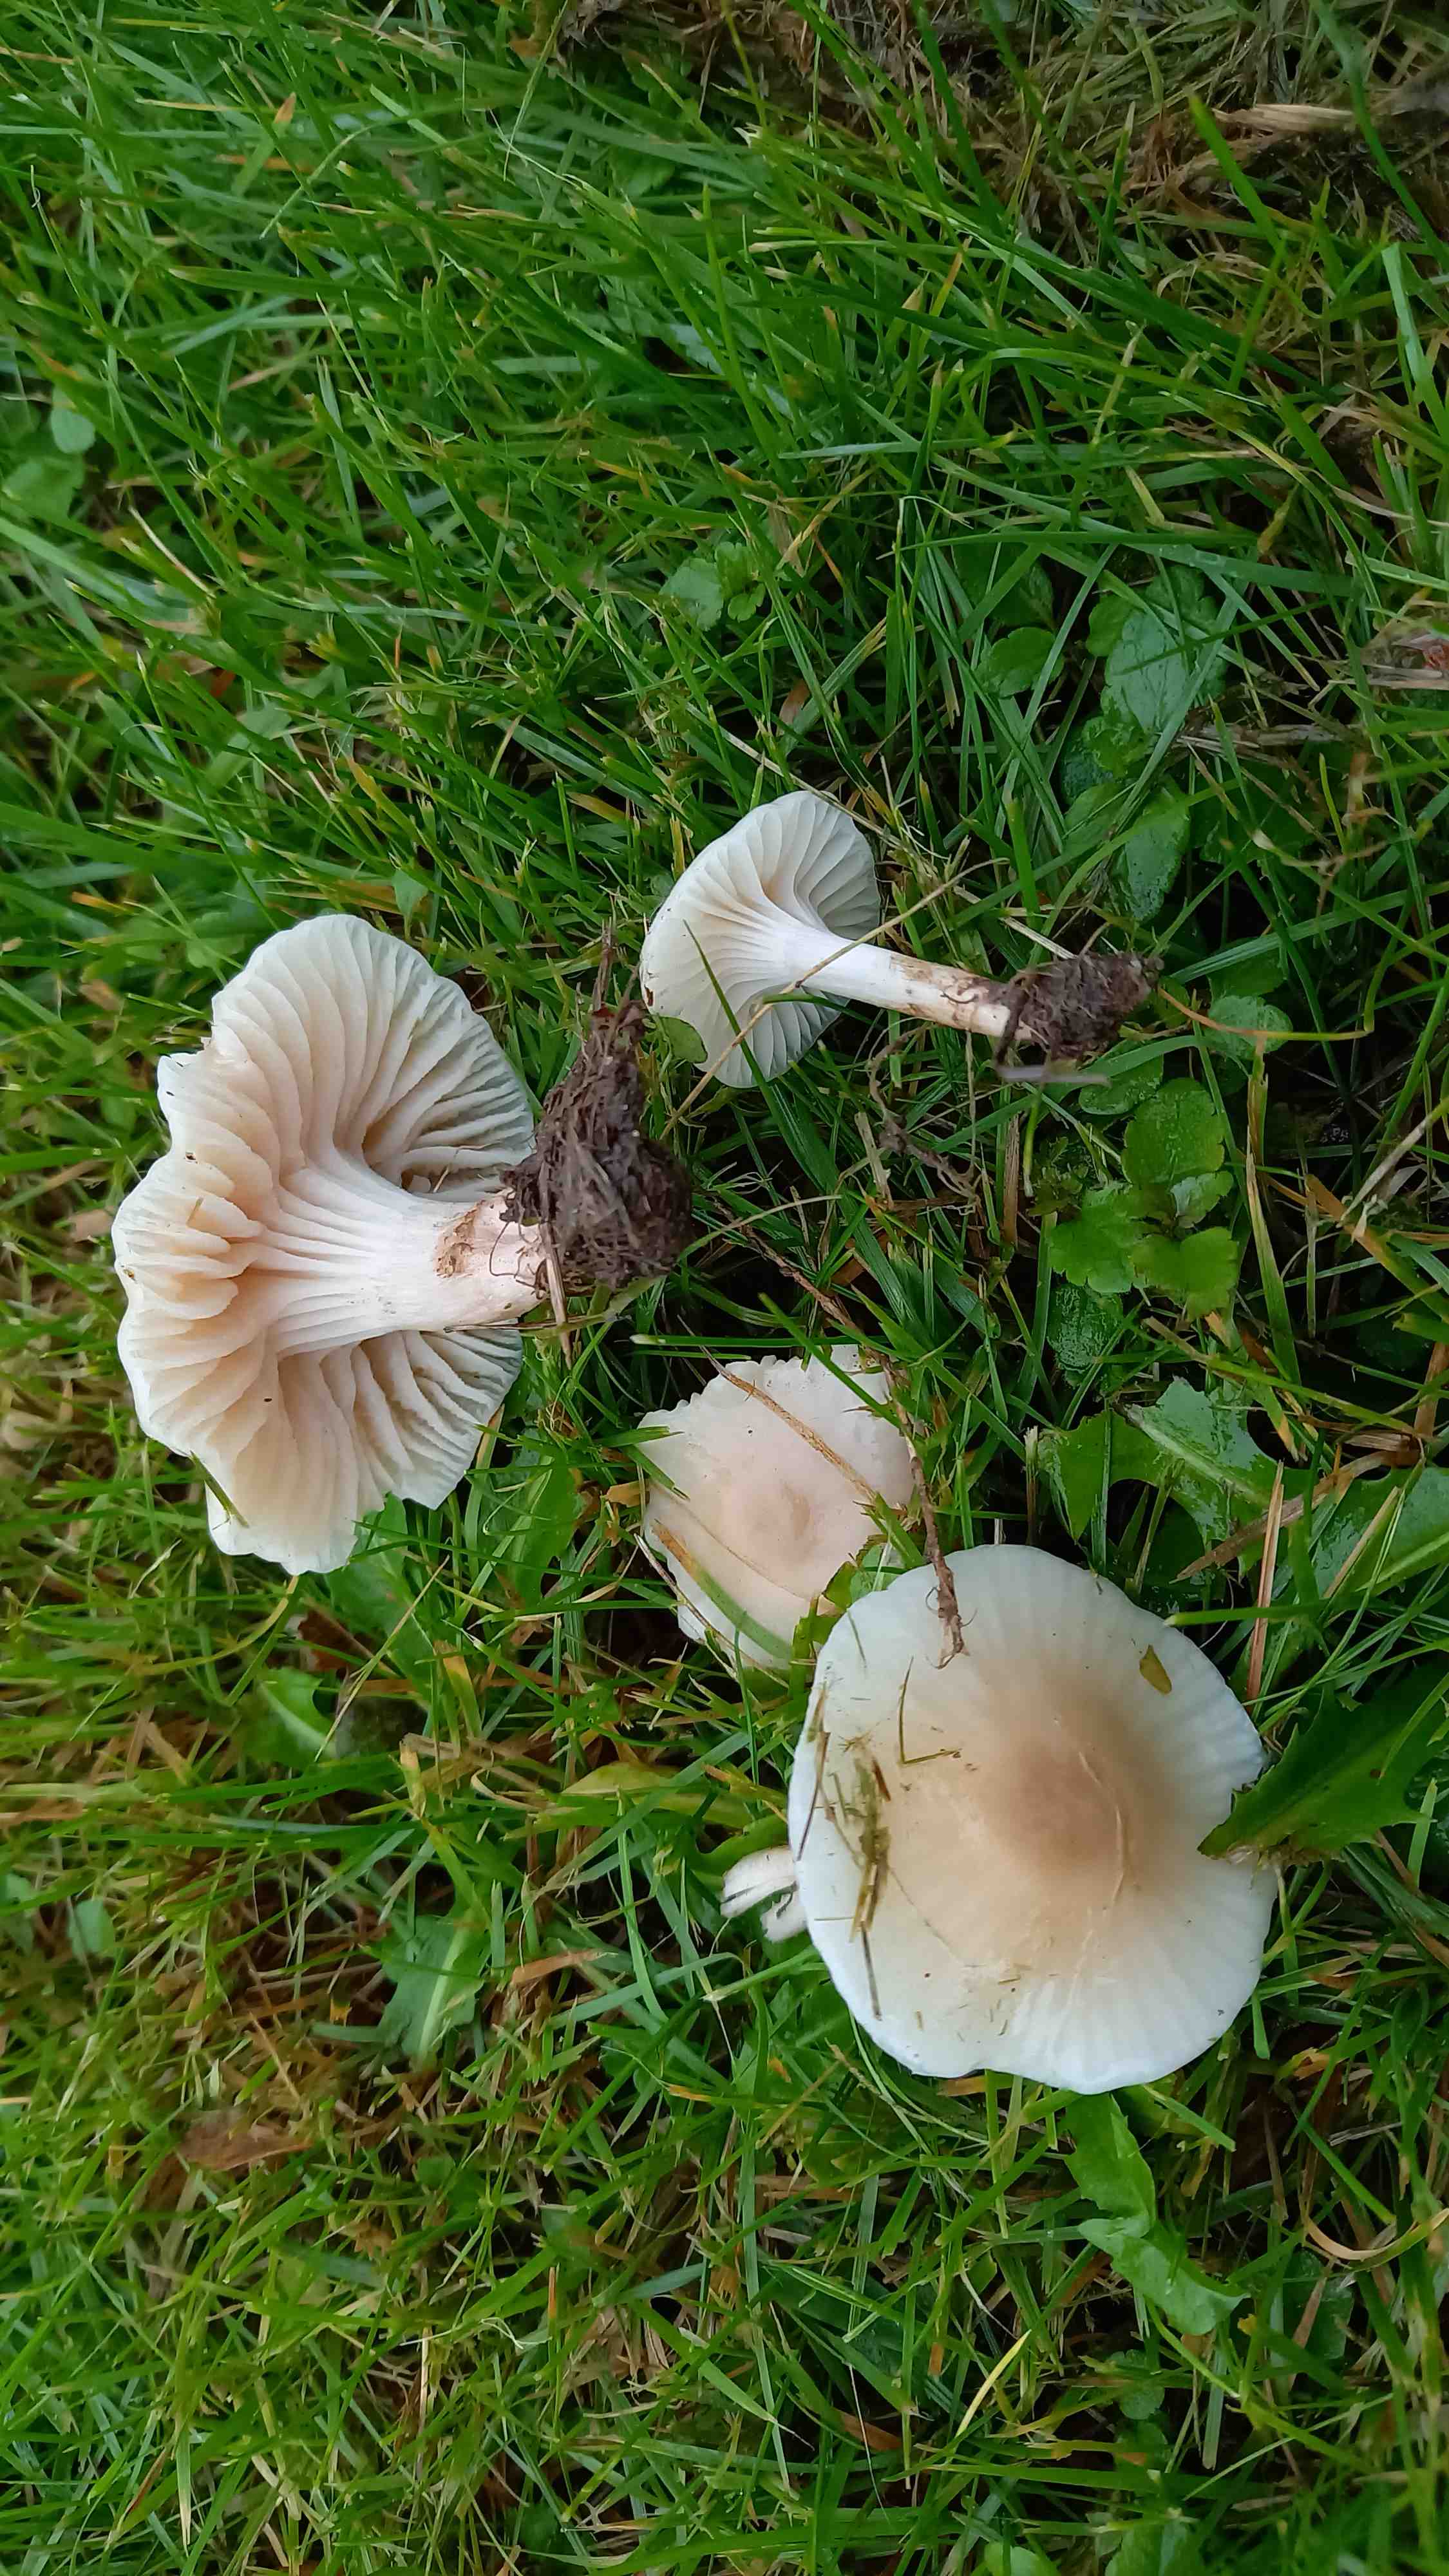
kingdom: Fungi
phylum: Basidiomycota
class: Agaricomycetes
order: Agaricales
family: Hygrophoraceae
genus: Cuphophyllus
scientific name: Cuphophyllus virgineus
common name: brunøjet vokshat
